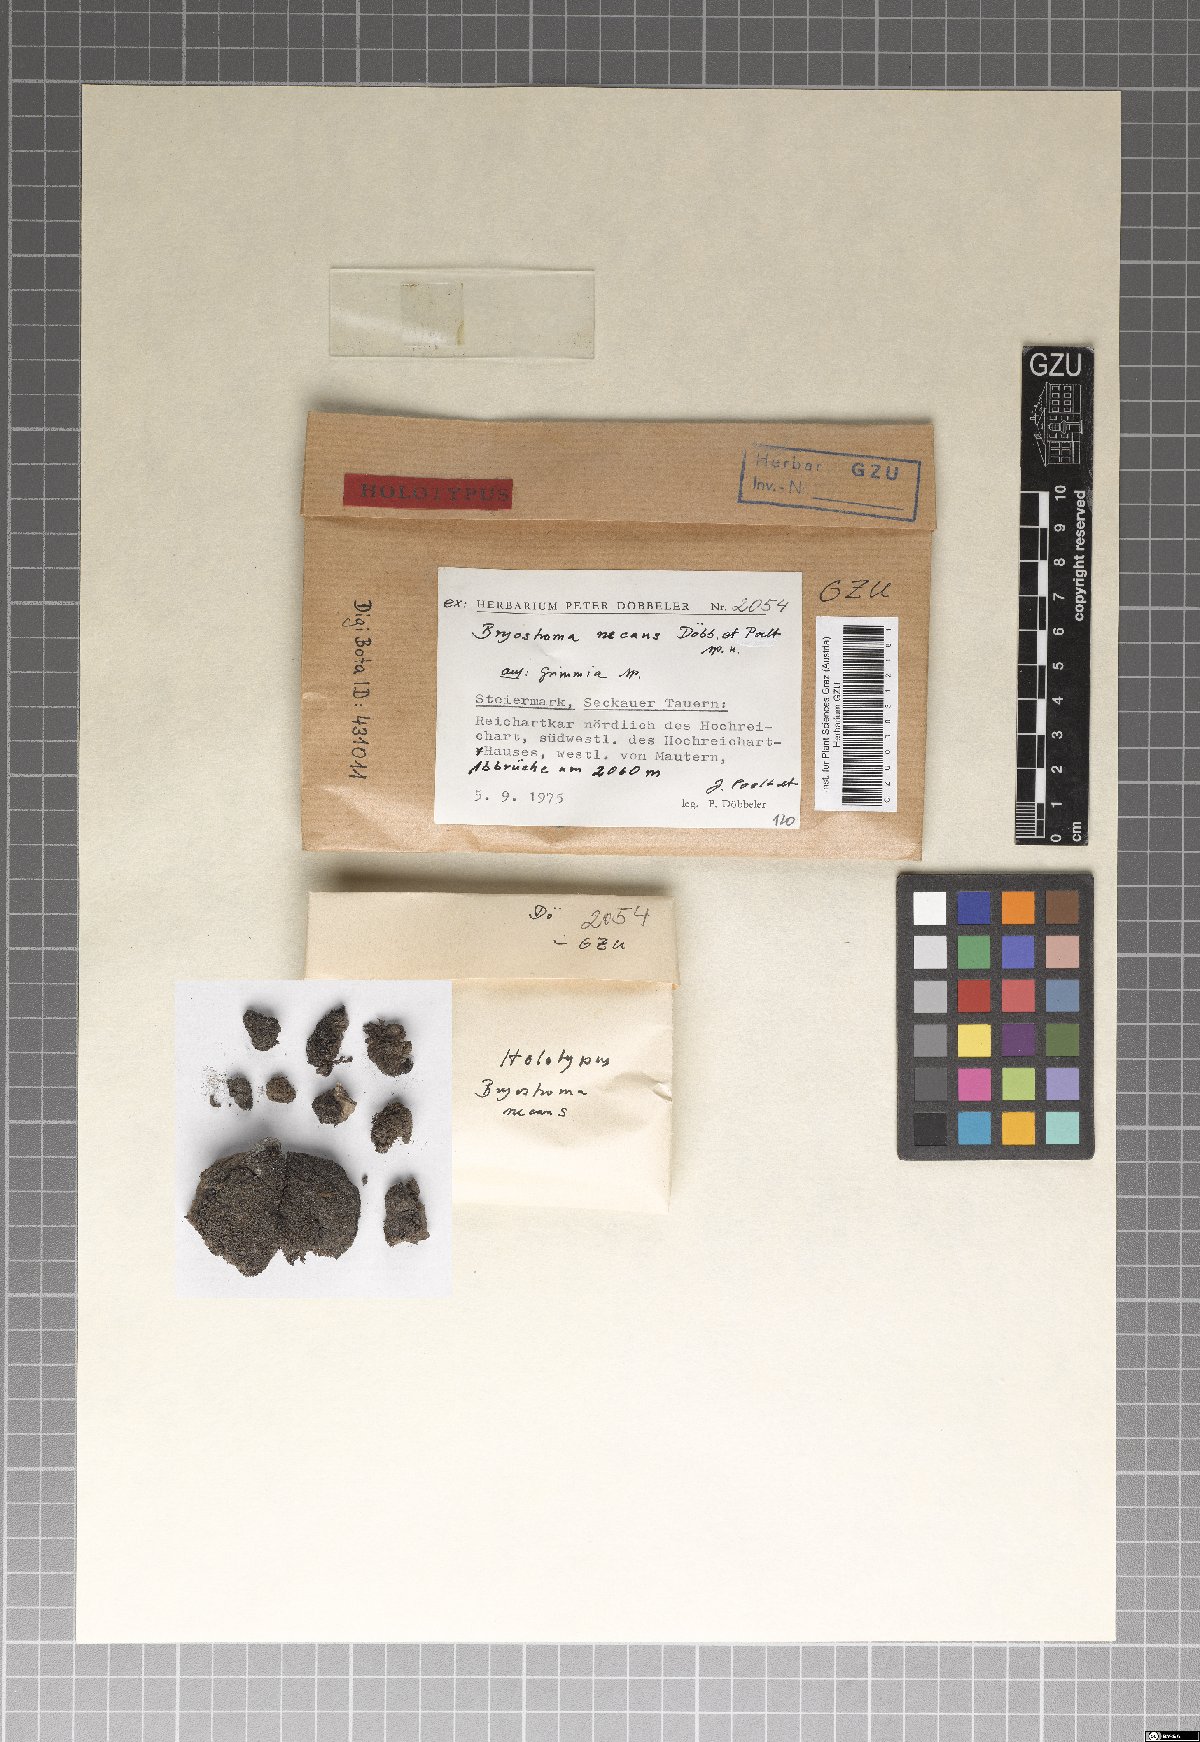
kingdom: Fungi
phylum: Ascomycota
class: Dothideomycetes
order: Dothideales
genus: Bryostroma
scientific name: Bryostroma necans
